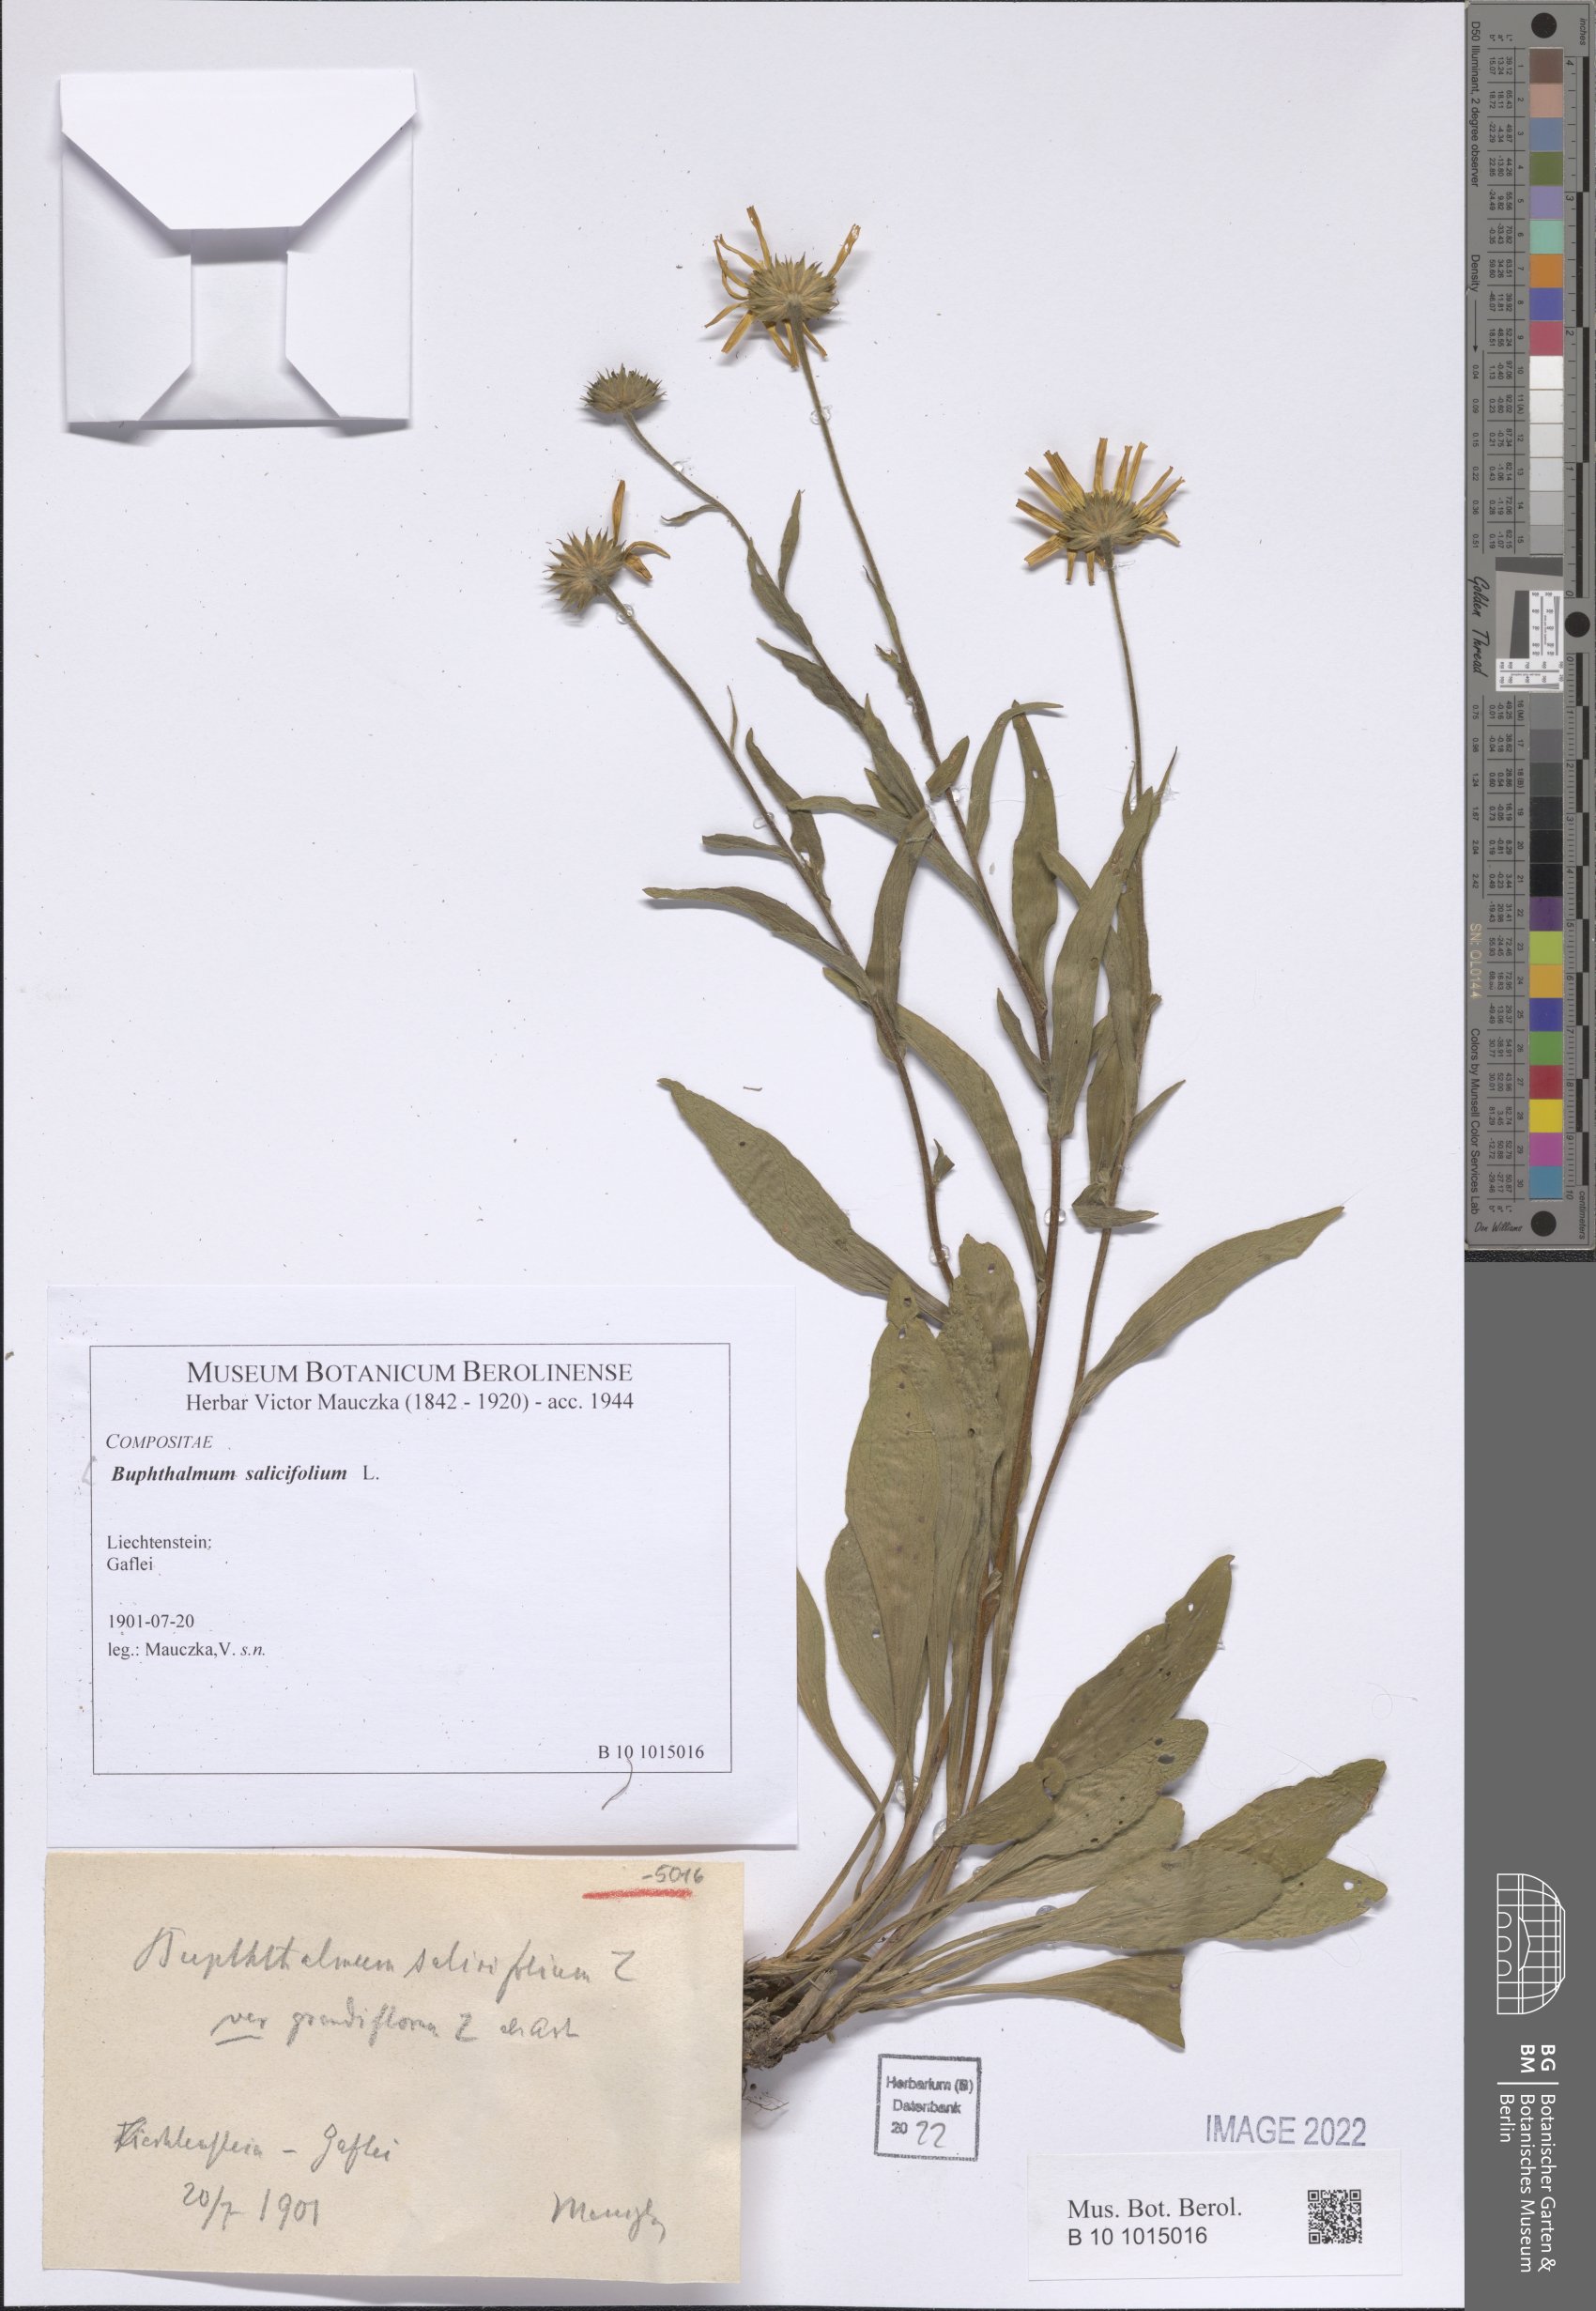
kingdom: Plantae
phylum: Tracheophyta
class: Magnoliopsida
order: Asterales
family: Asteraceae
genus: Buphthalmum
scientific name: Buphthalmum salicifolium
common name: Willow-leaved yellow-oxeye
